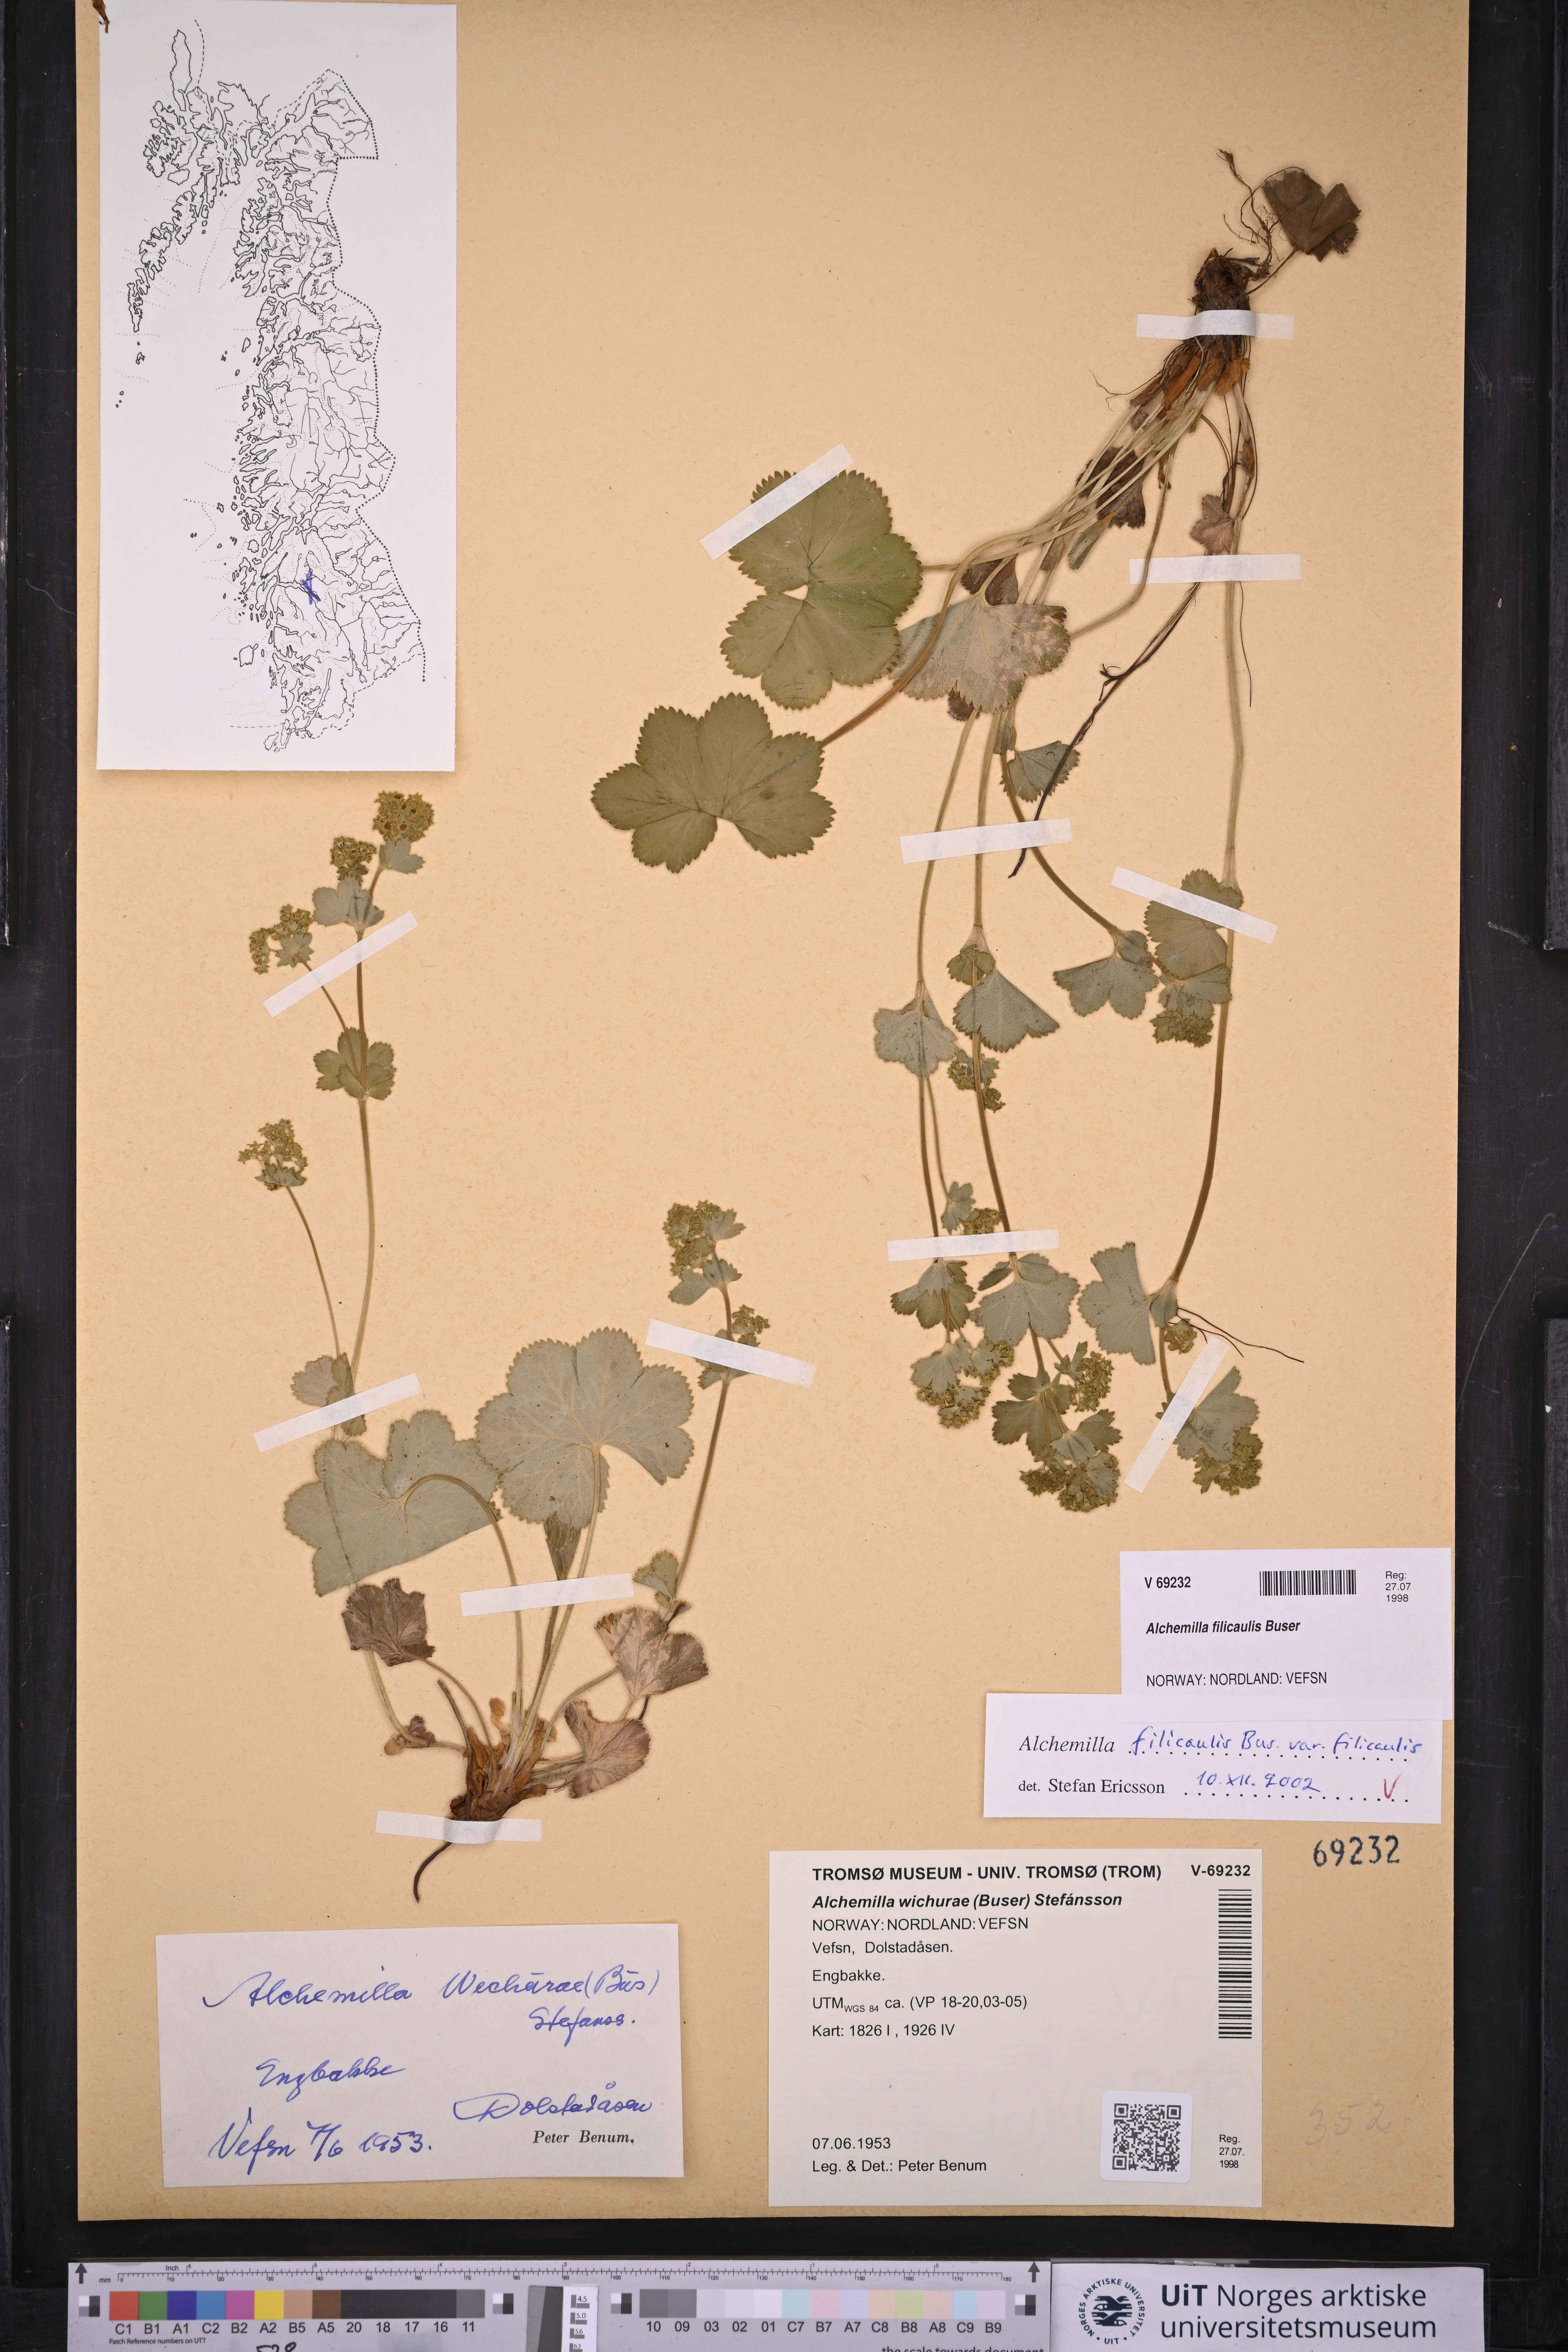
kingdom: Plantae
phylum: Tracheophyta
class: Magnoliopsida
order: Rosales
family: Rosaceae
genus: Alchemilla
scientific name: Alchemilla filicaulis
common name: Hairy lady's-mantle
